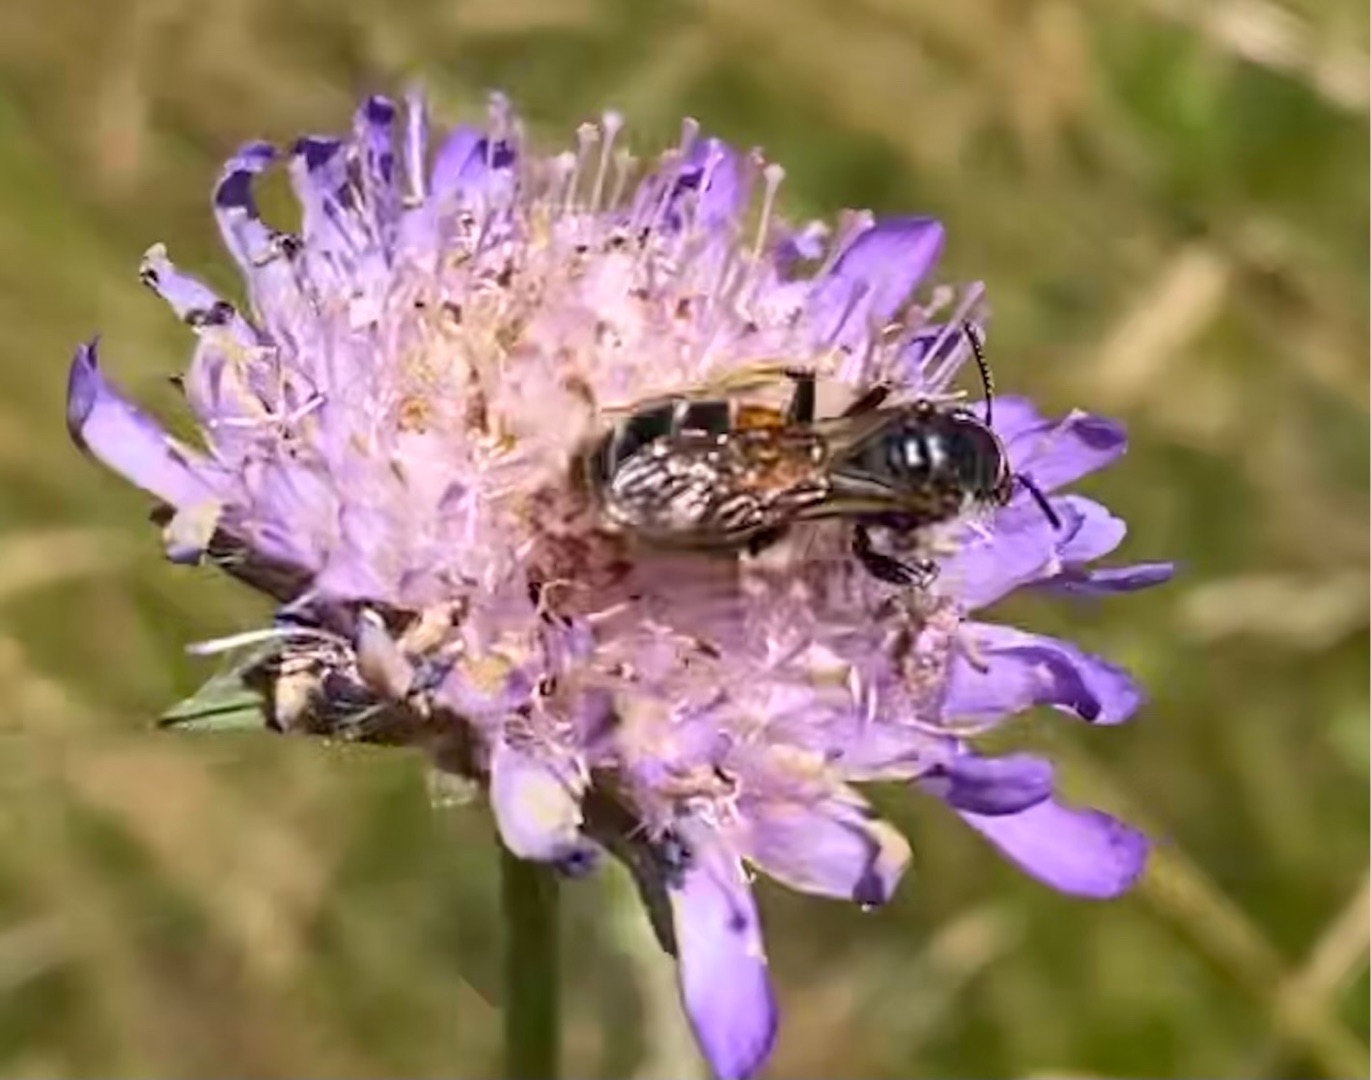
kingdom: Animalia
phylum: Arthropoda
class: Insecta
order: Hymenoptera
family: Andrenidae
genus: Andrena
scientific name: Andrena hattorfiana
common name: Blåhatjordbi
